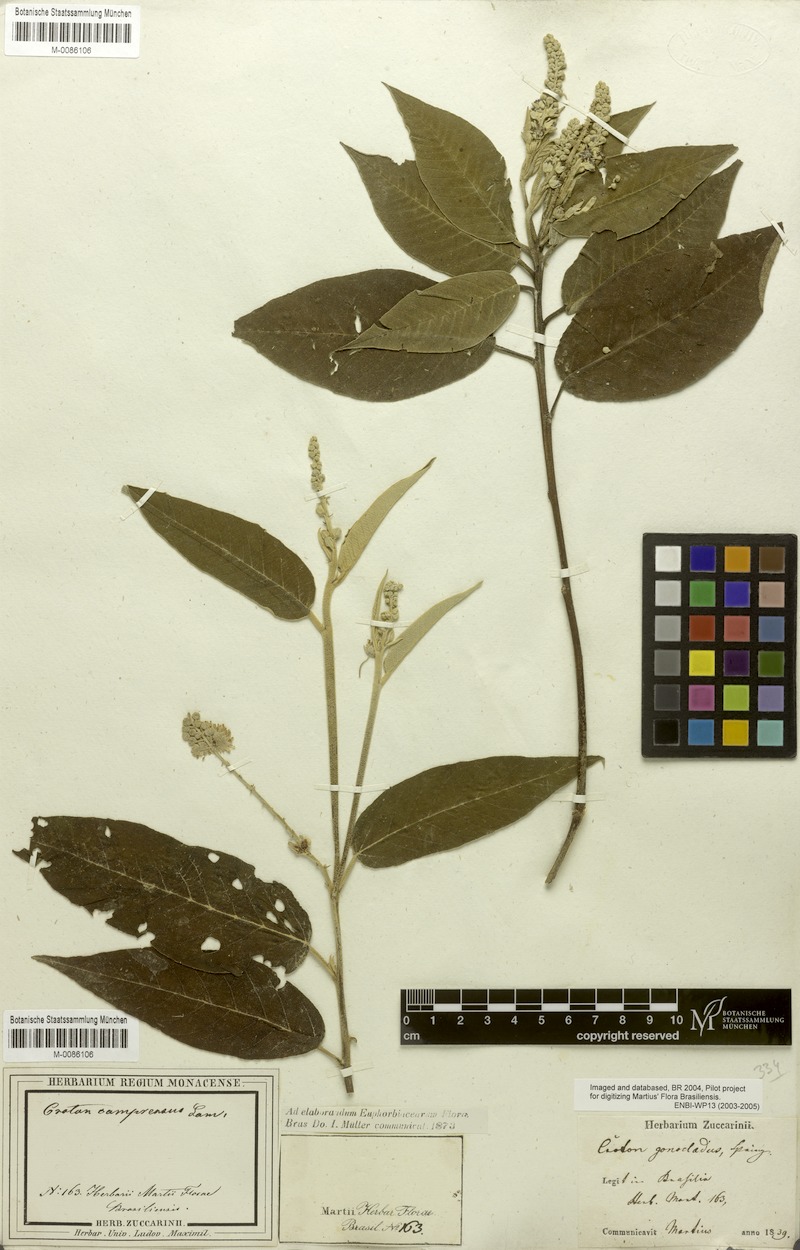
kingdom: Plantae
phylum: Tracheophyta
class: Magnoliopsida
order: Malpighiales
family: Euphorbiaceae
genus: Croton
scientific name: Croton compressus
